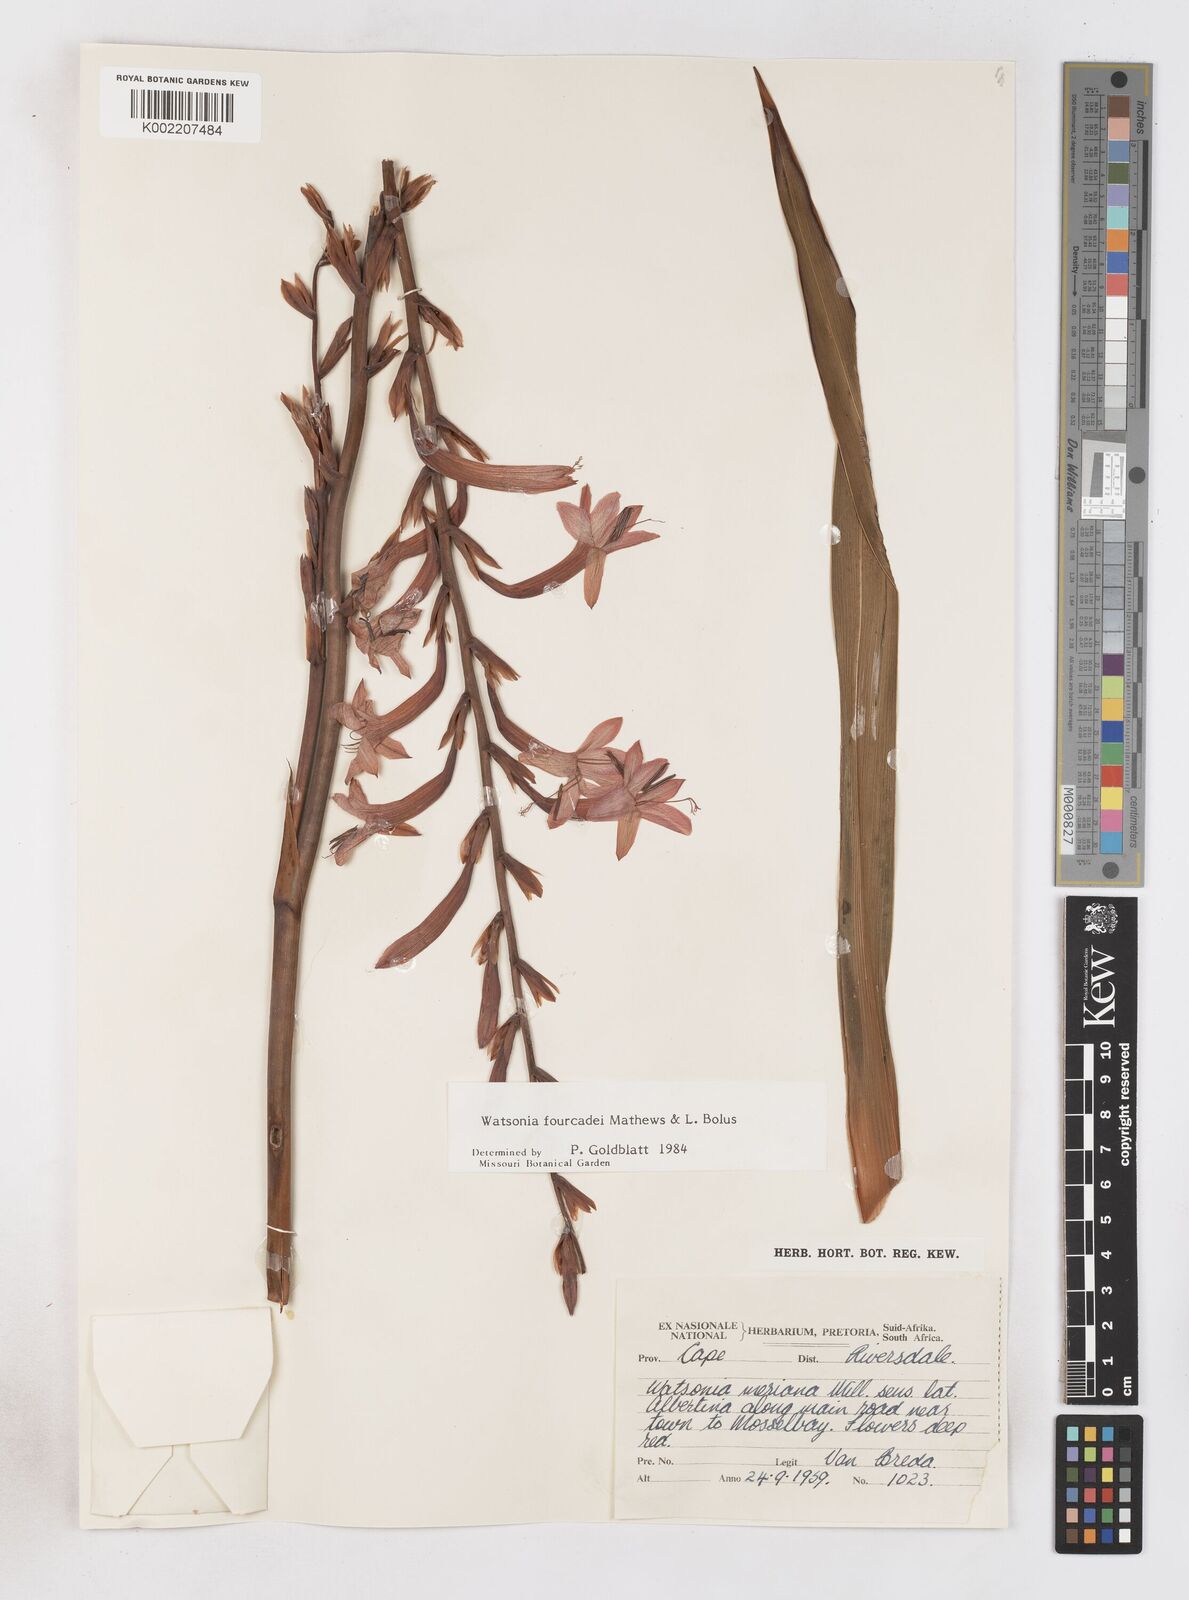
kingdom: Plantae
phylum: Tracheophyta
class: Liliopsida
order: Asparagales
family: Iridaceae
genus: Watsonia
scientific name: Watsonia fourcadei
